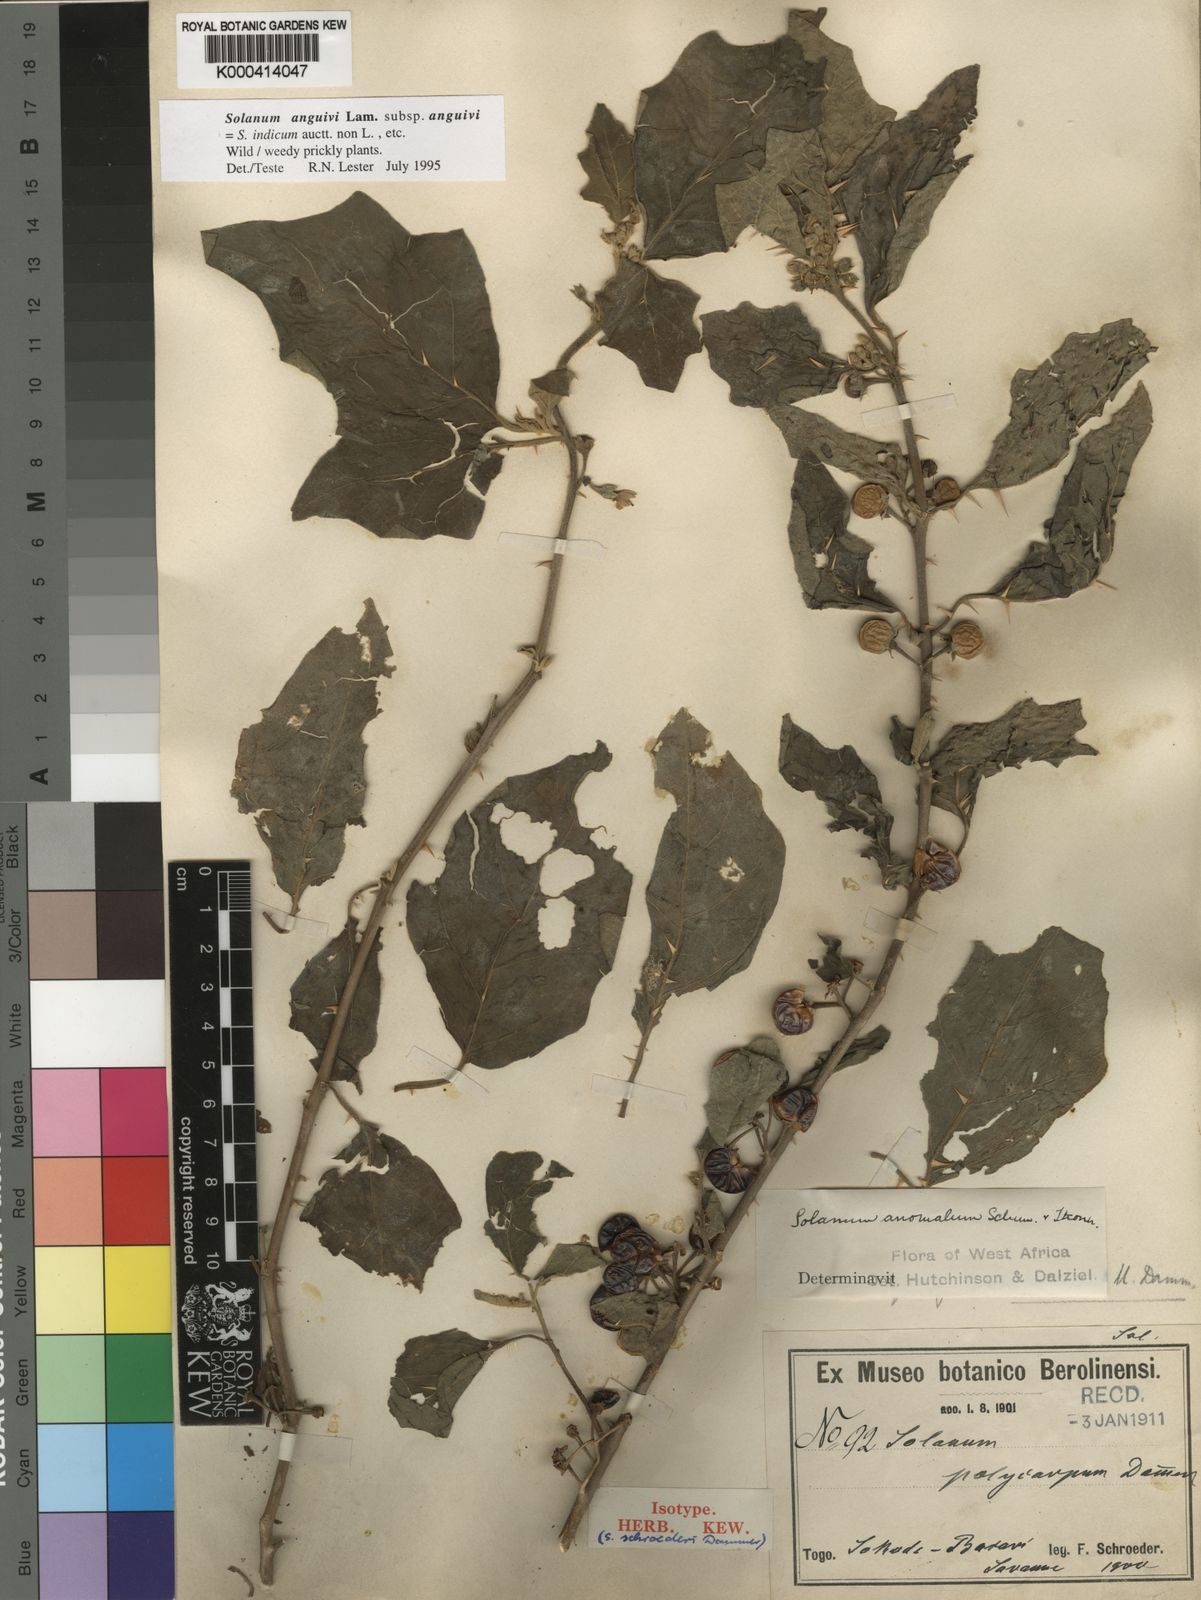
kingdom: Plantae
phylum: Tracheophyta
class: Magnoliopsida
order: Solanales
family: Solanaceae
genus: Solanum
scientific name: Solanum violaceum
